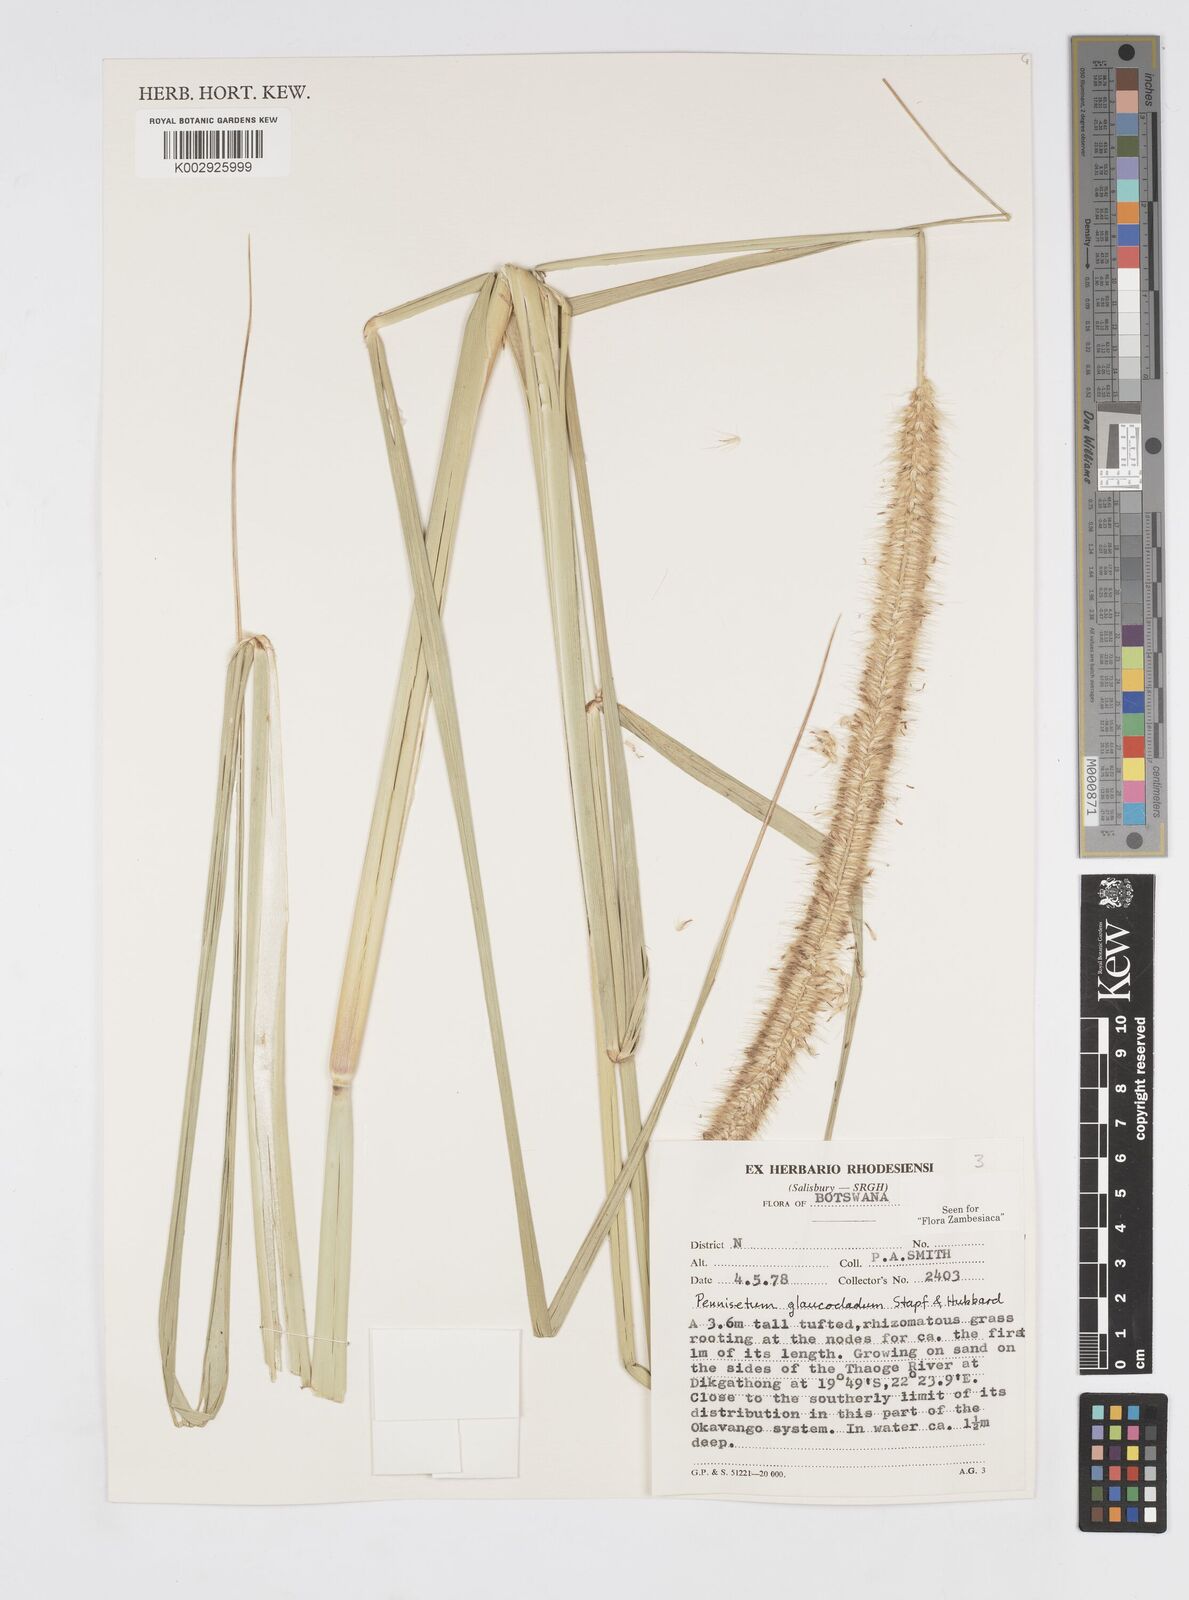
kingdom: Plantae
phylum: Tracheophyta
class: Liliopsida
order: Poales
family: Poaceae
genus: Cenchrus
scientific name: Cenchrus caudatus
